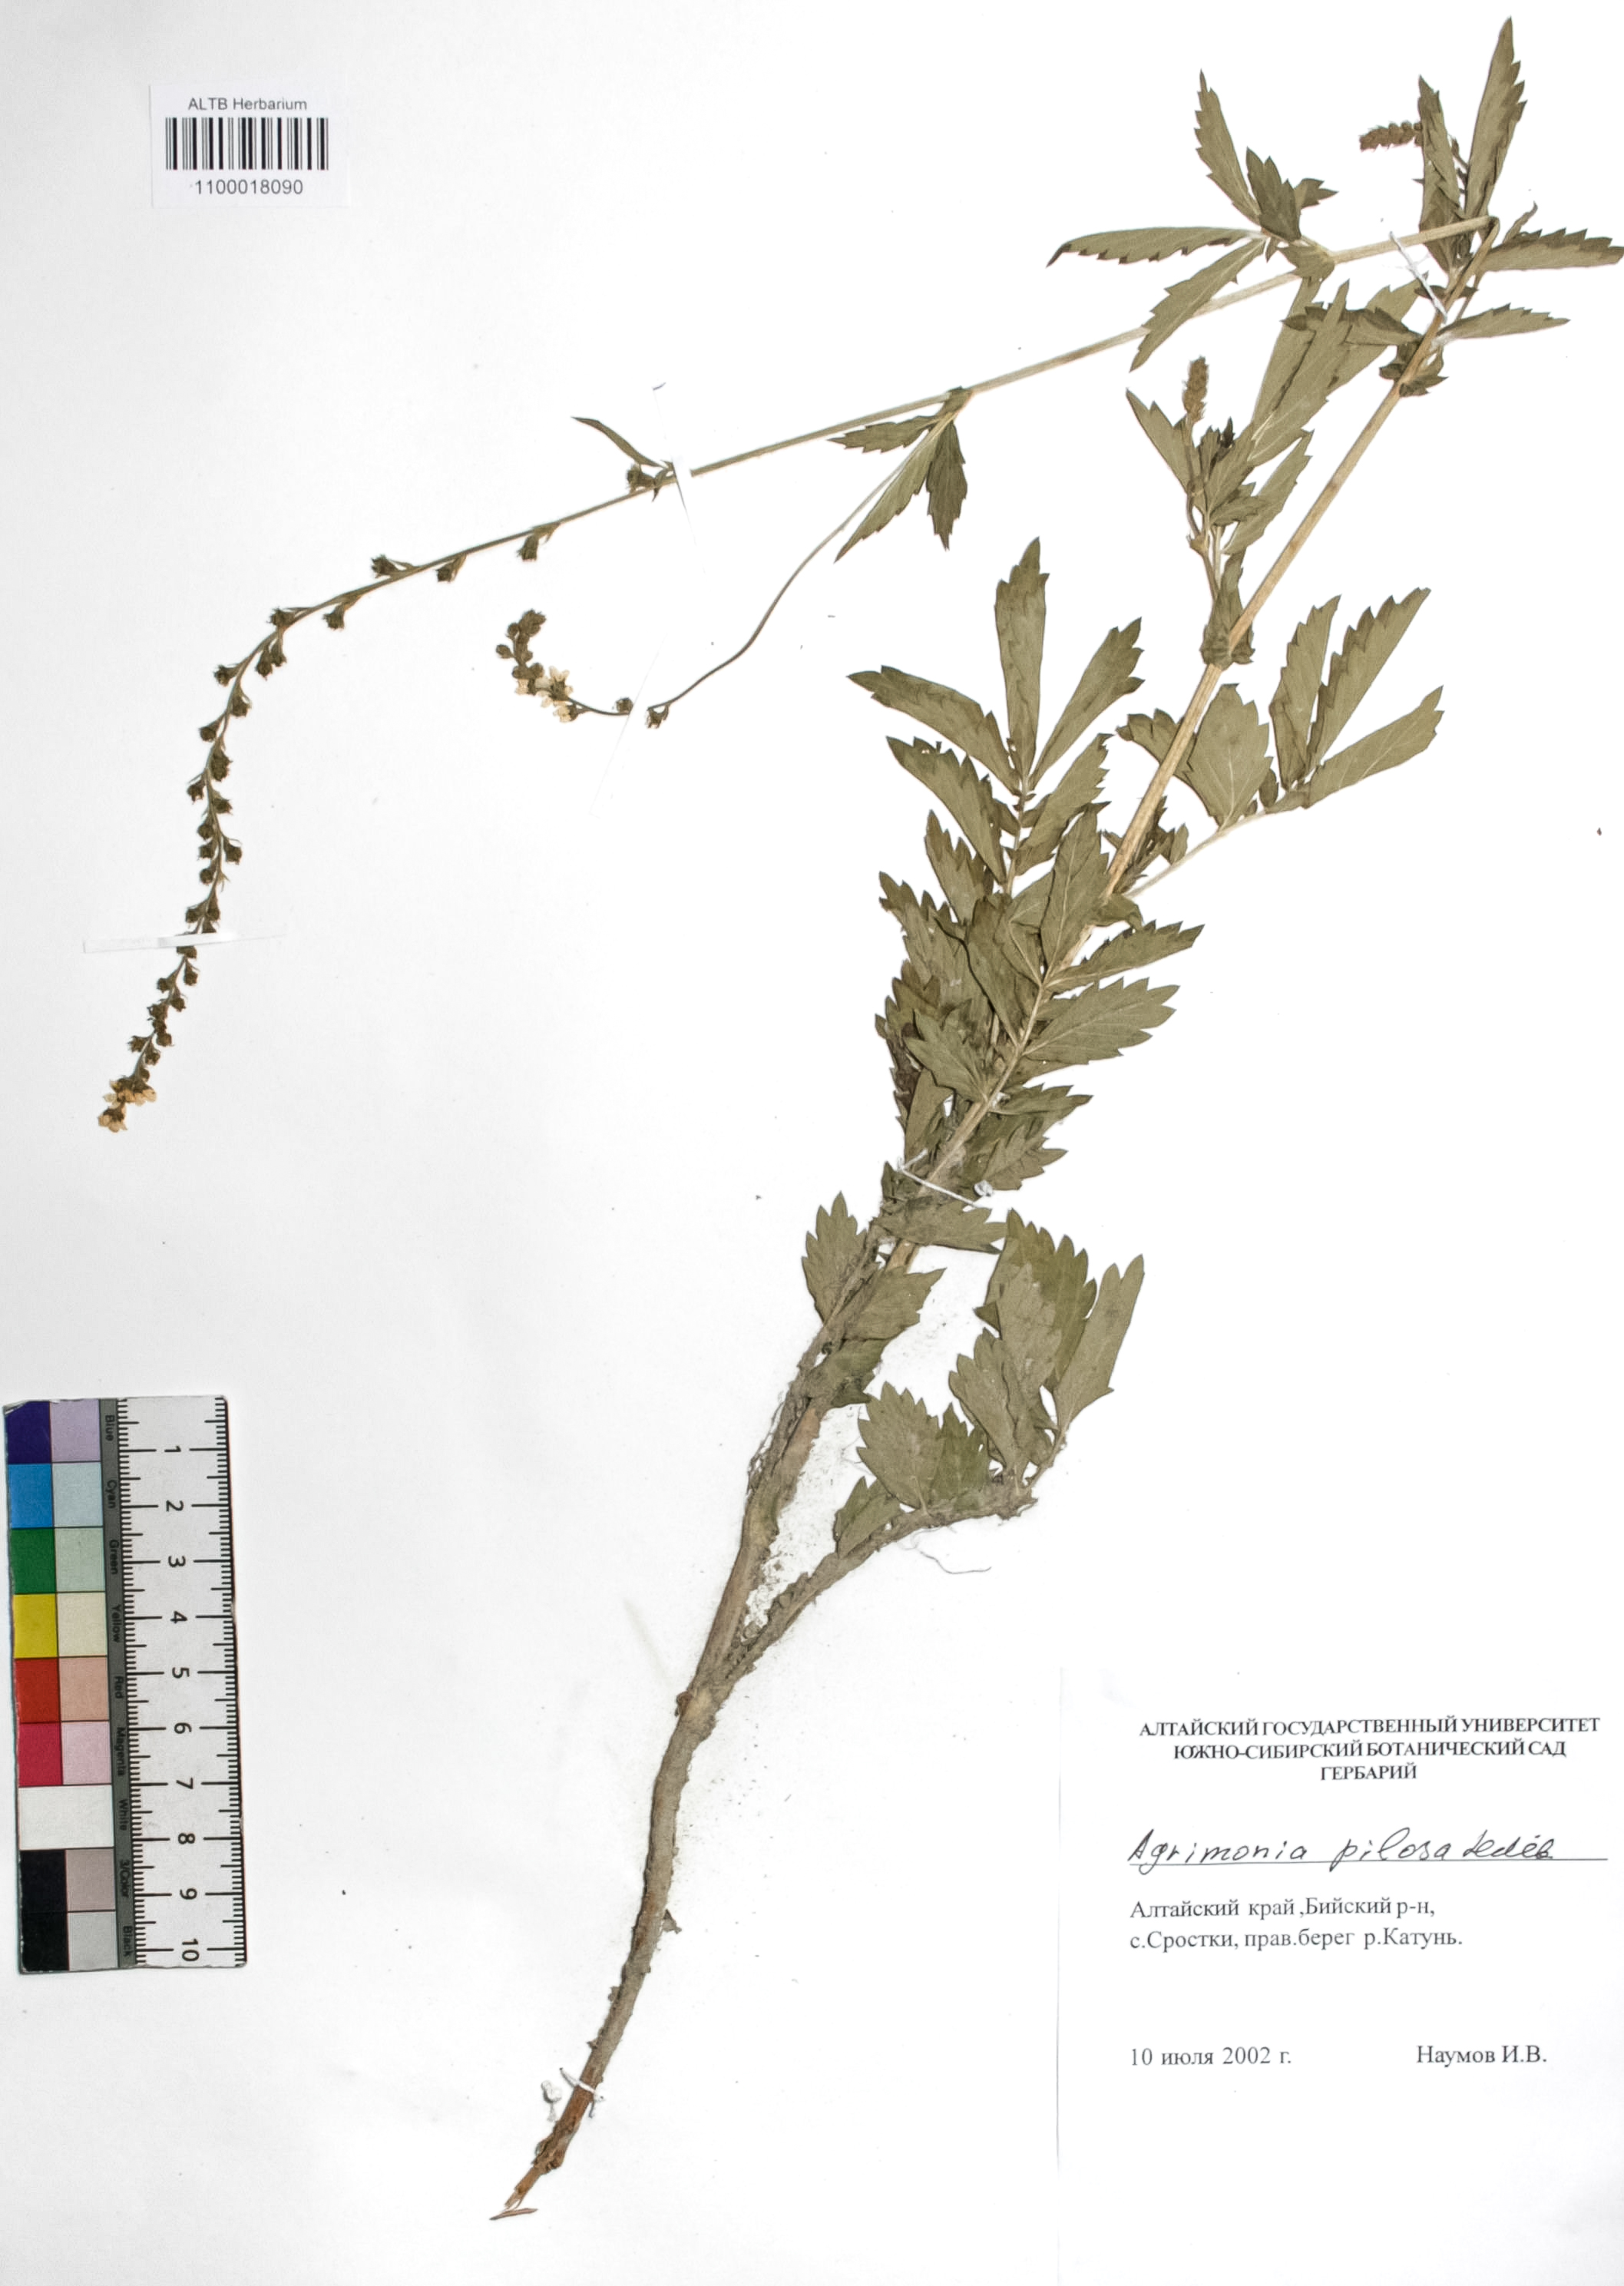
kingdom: Plantae
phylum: Tracheophyta
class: Magnoliopsida
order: Rosales
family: Rosaceae
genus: Agrimonia
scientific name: Agrimonia pilosa
